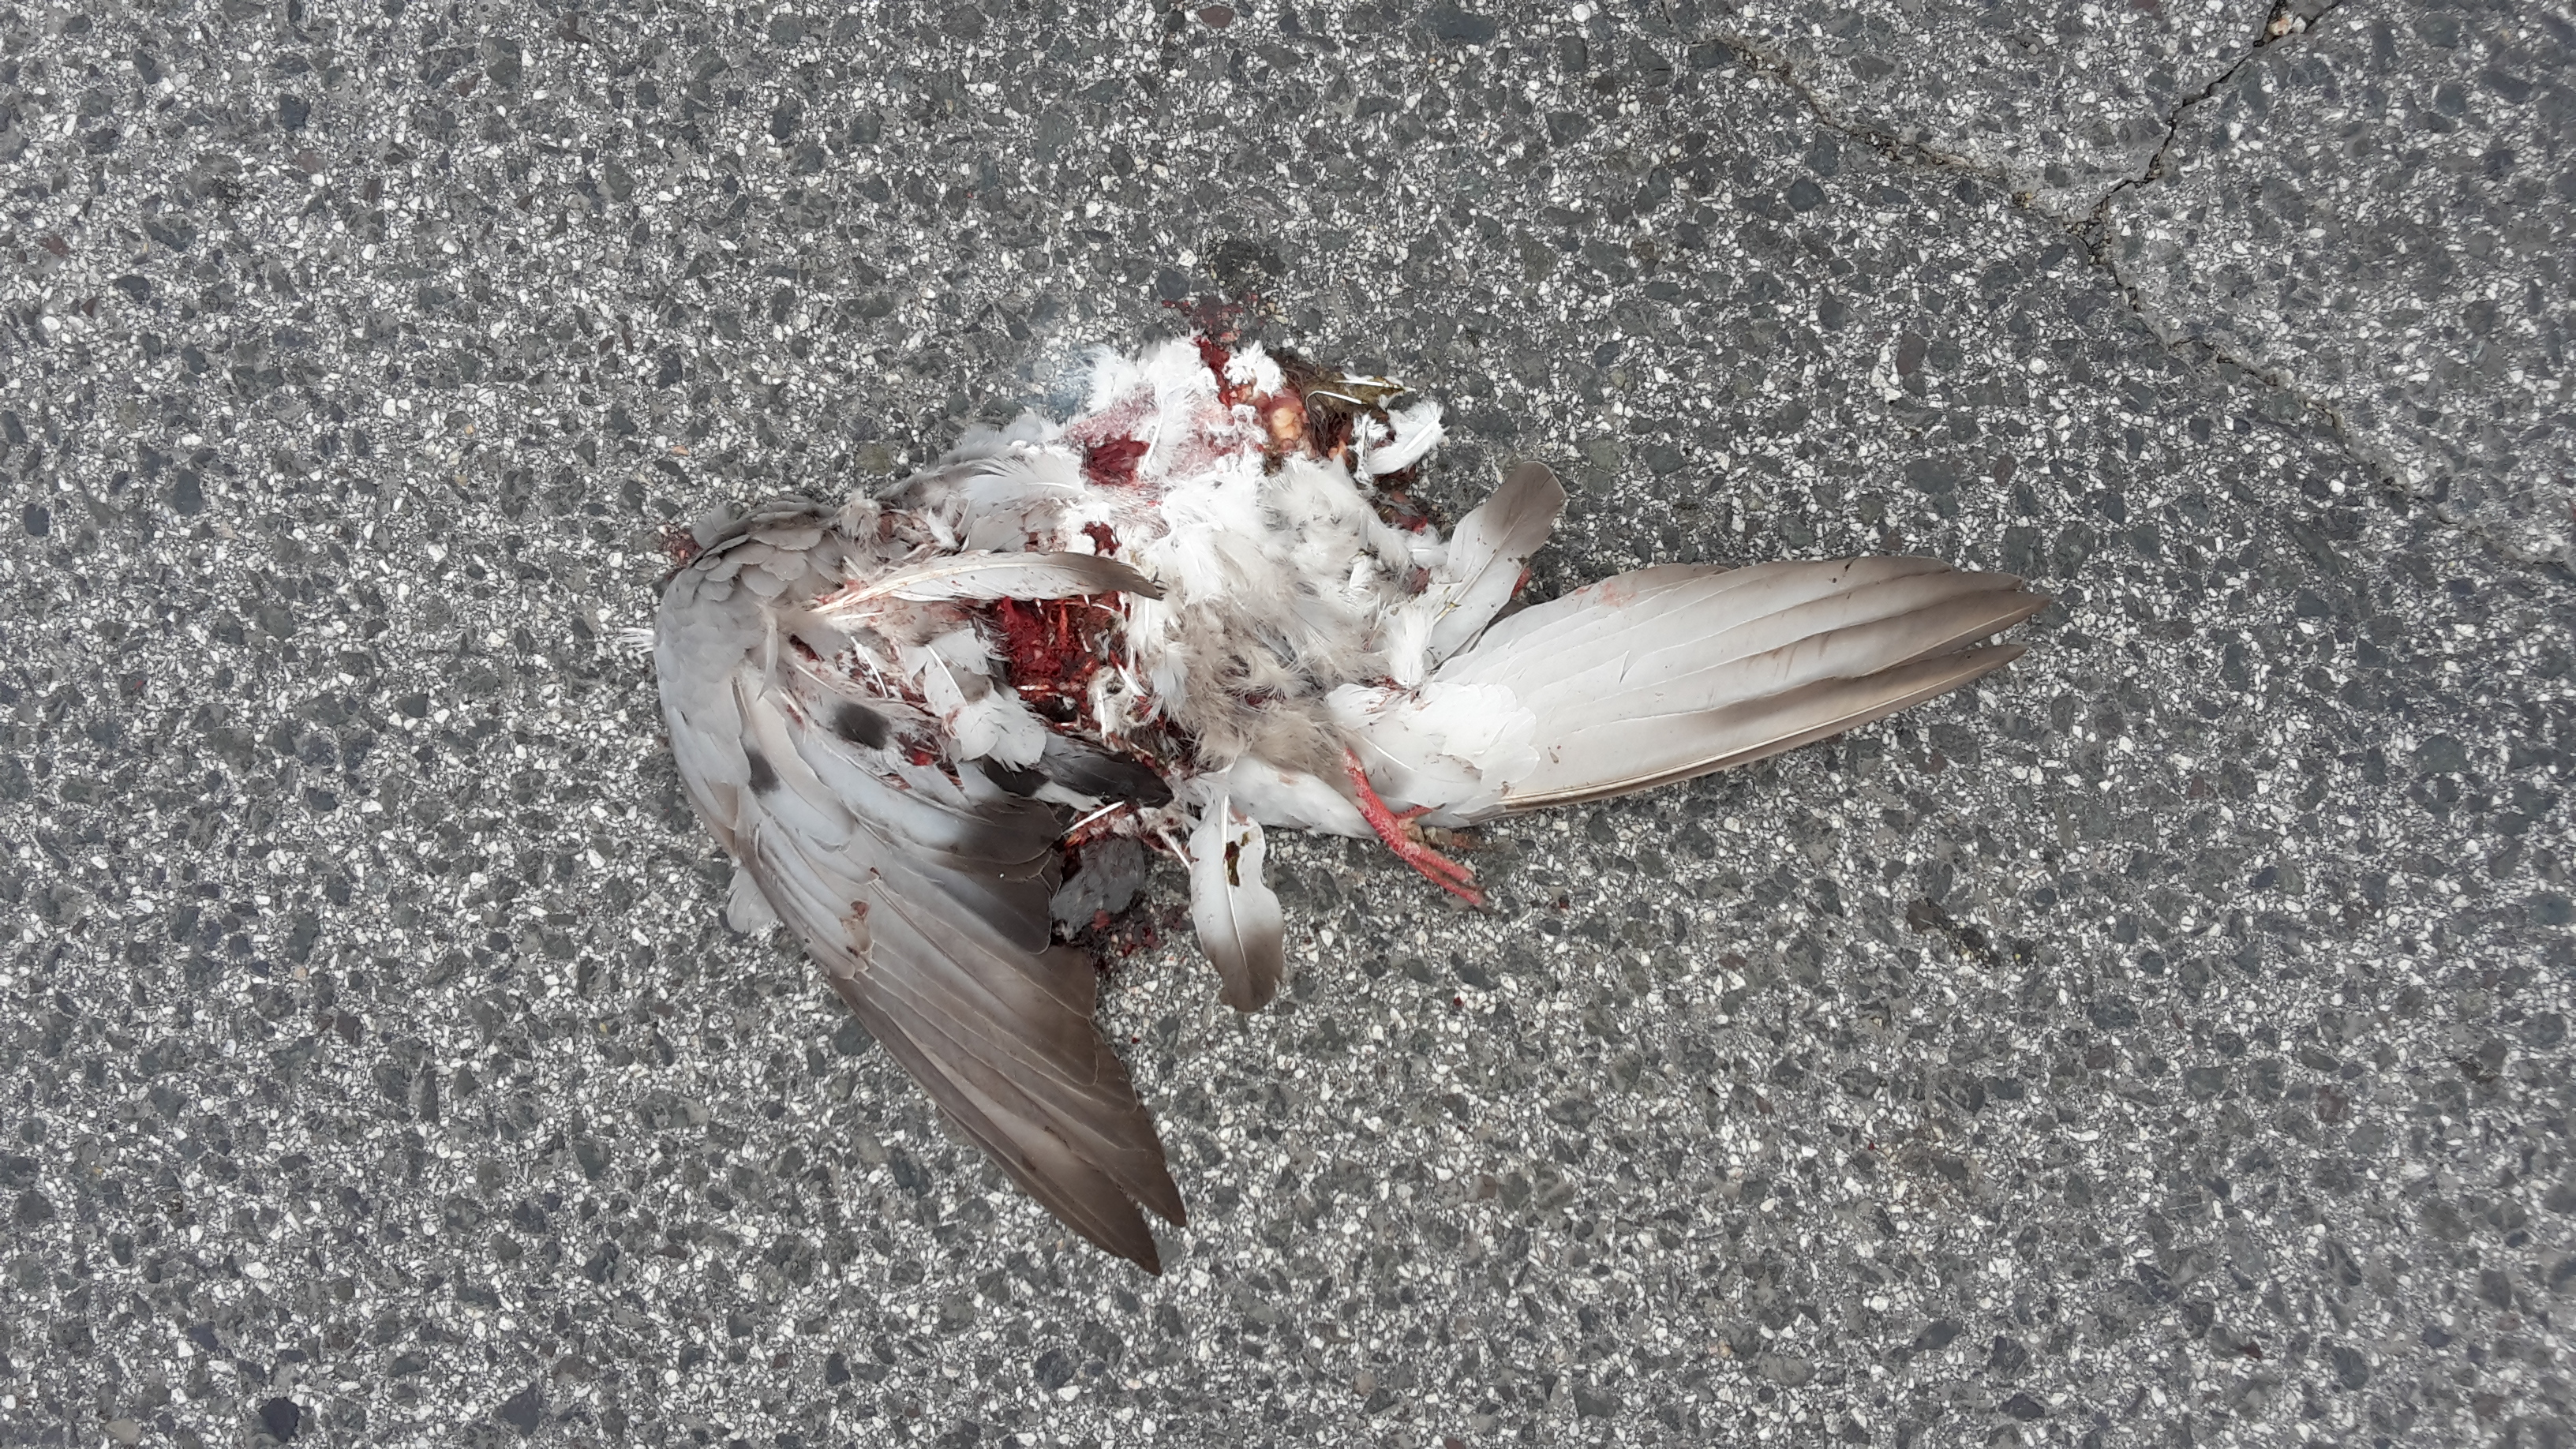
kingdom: Animalia
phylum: Chordata
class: Aves
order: Columbiformes
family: Columbidae
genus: Streptopelia
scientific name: Streptopelia decaocto
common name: Eurasian collared dove
